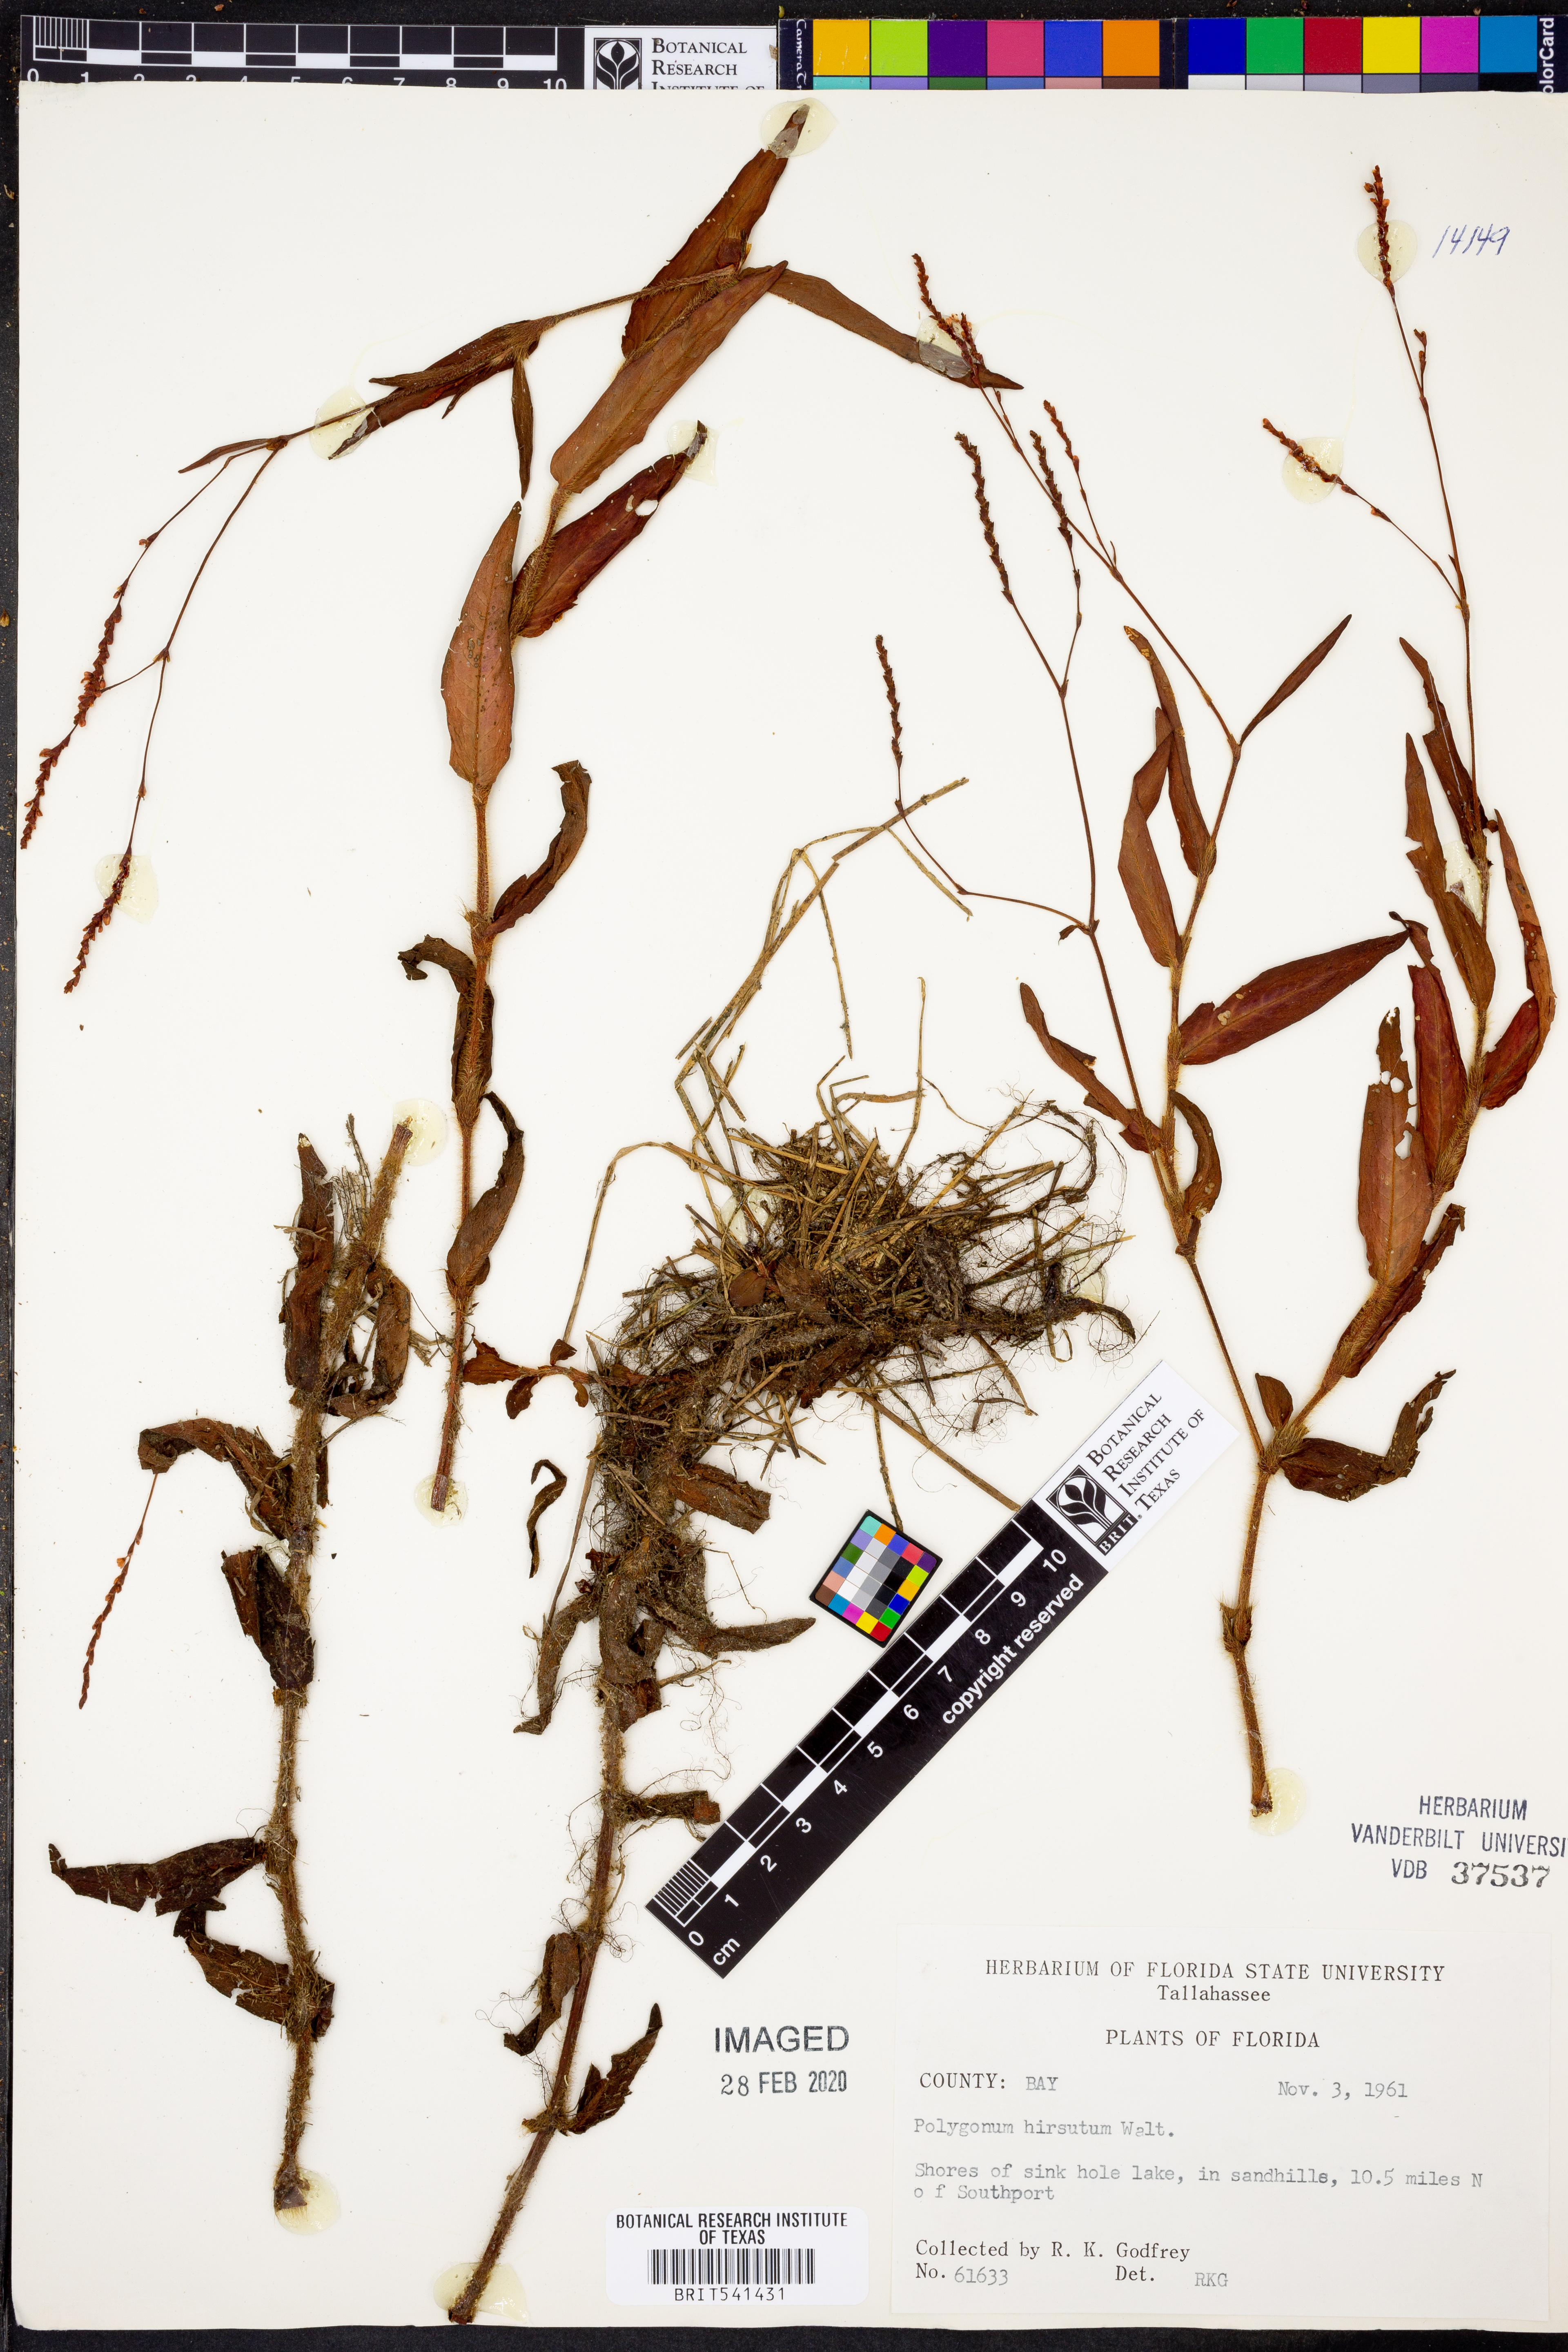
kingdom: Plantae
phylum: Tracheophyta
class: Magnoliopsida
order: Caryophyllales
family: Polygonaceae
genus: Persicaria
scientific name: Persicaria hirsuta
